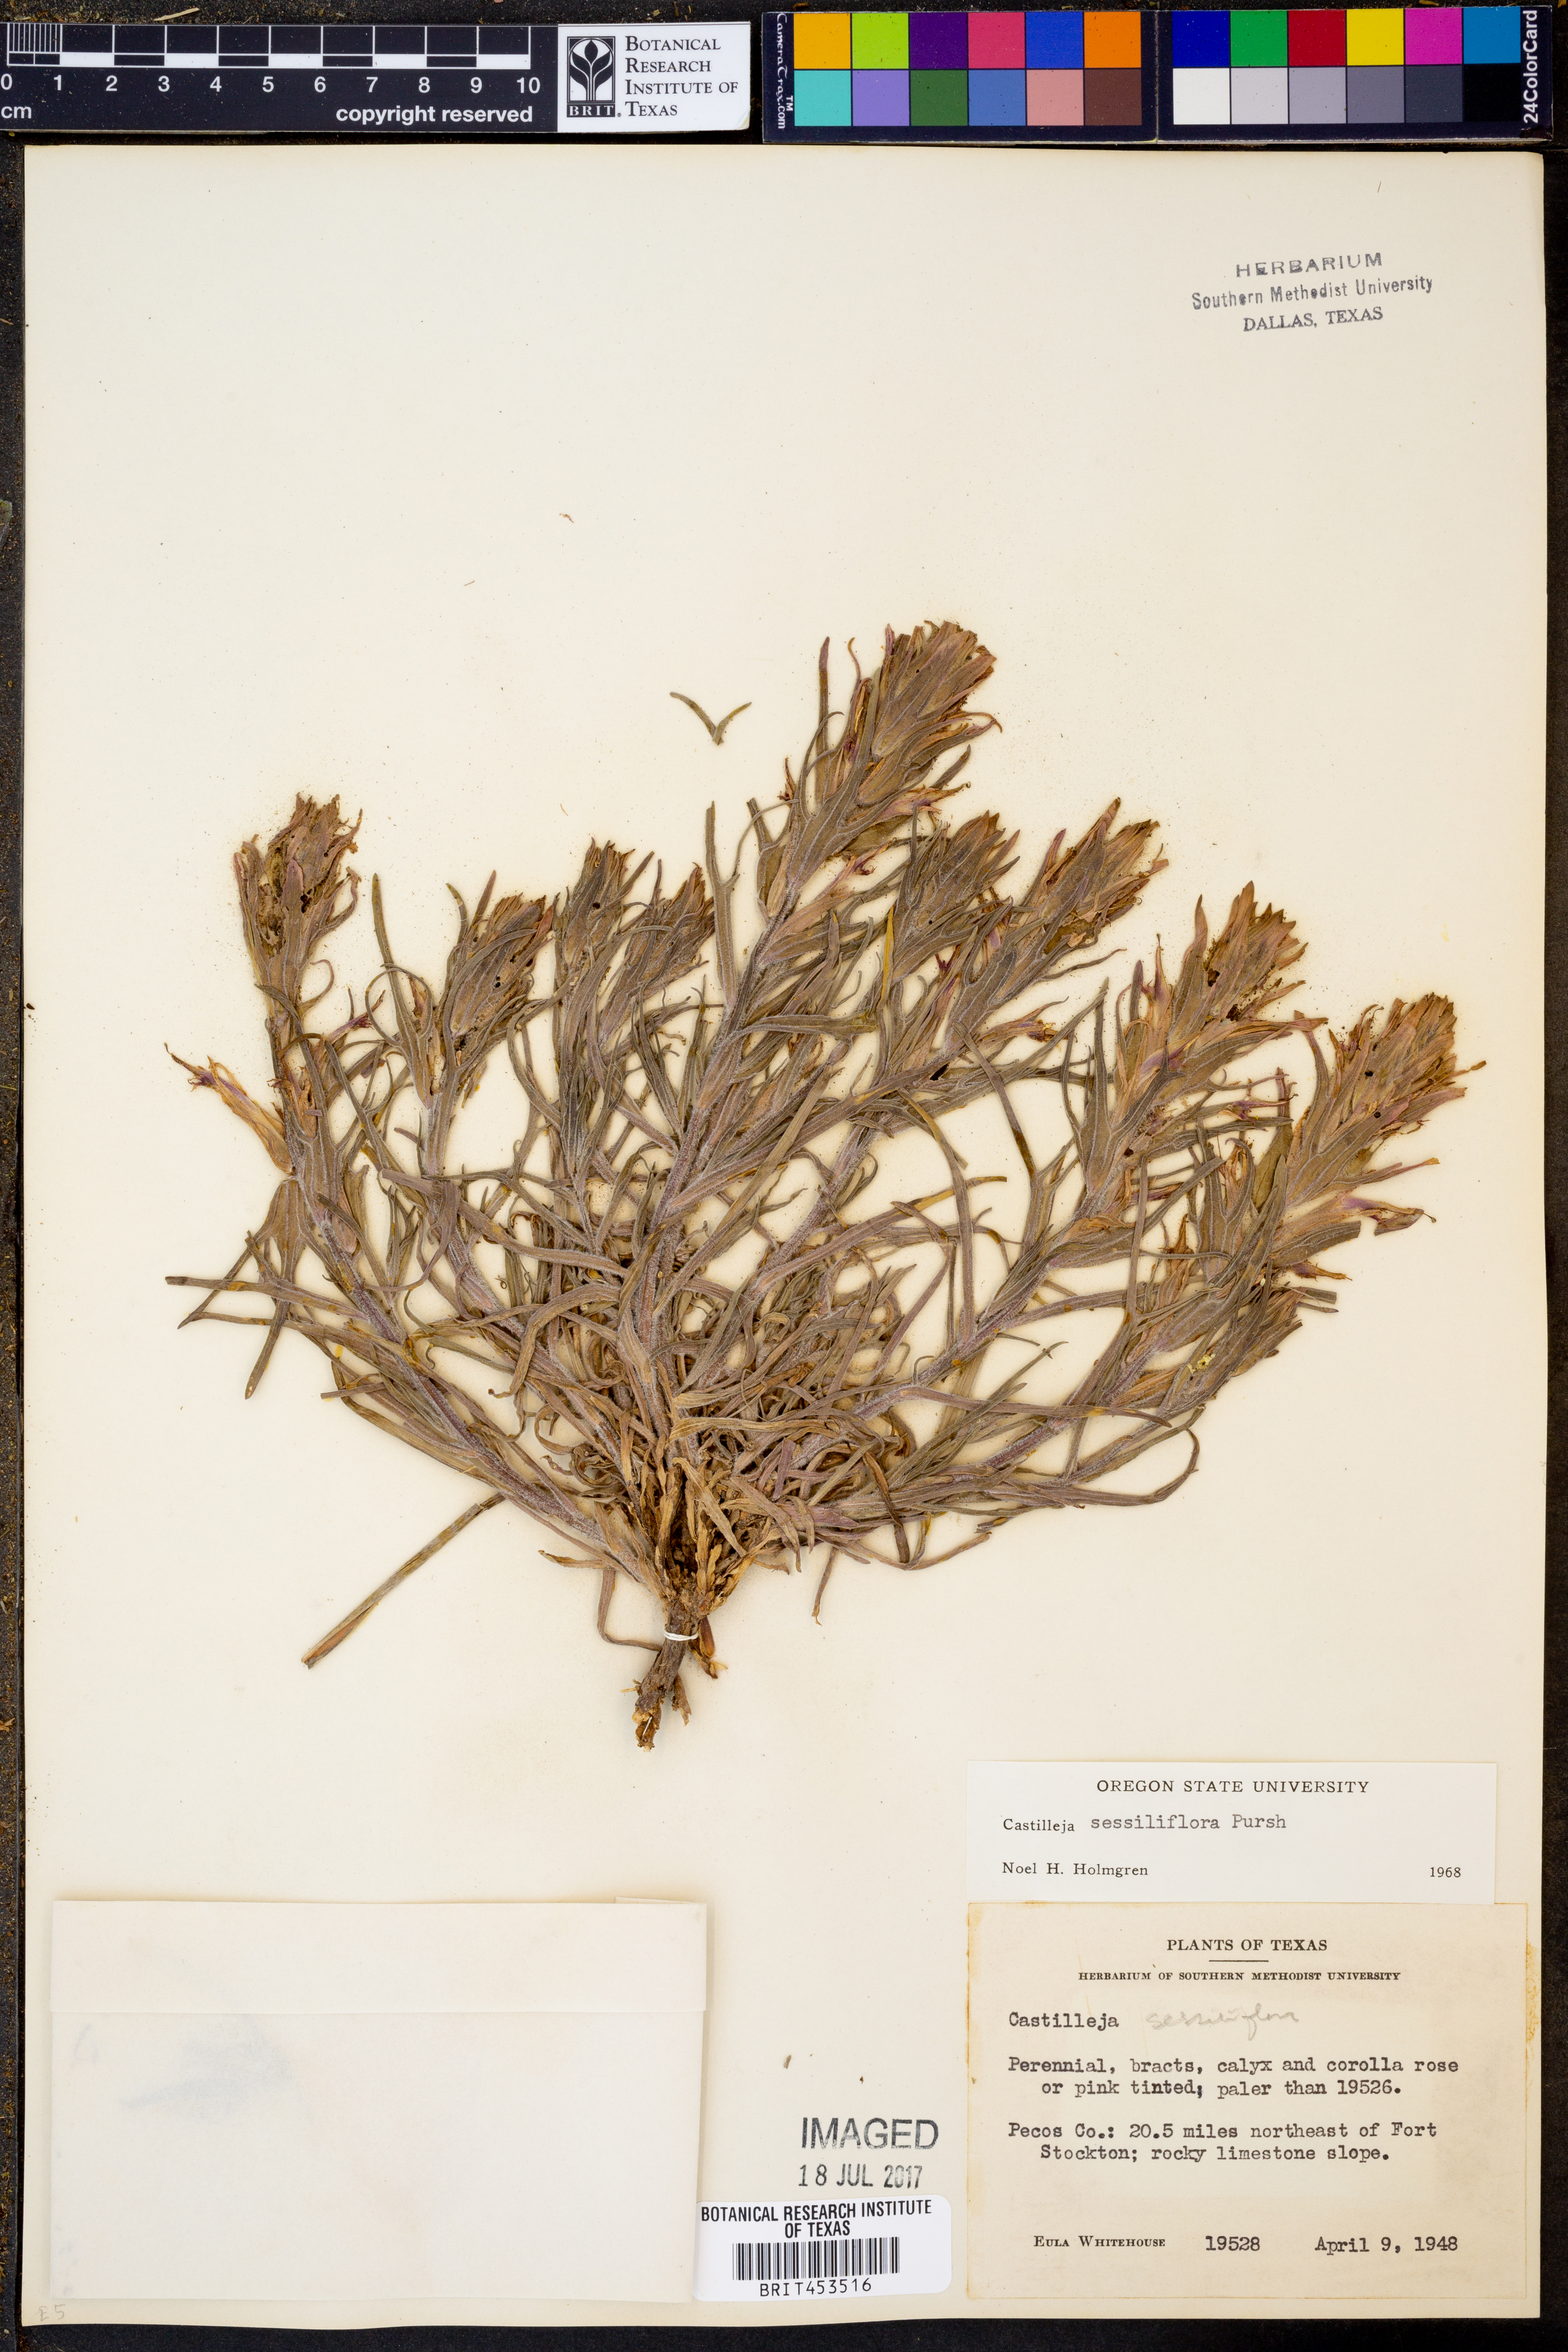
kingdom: Plantae
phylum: Tracheophyta
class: Magnoliopsida
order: Lamiales
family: Orobanchaceae
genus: Castilleja
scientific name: Castilleja sessiliflora
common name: Downy paintbrush
